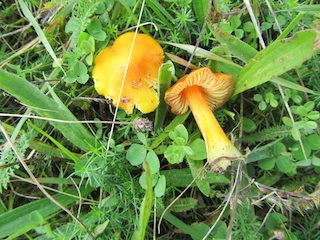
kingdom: Fungi
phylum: Basidiomycota
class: Agaricomycetes
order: Agaricales
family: Hygrophoraceae
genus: Hygrocybe
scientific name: Hygrocybe acutoconica
